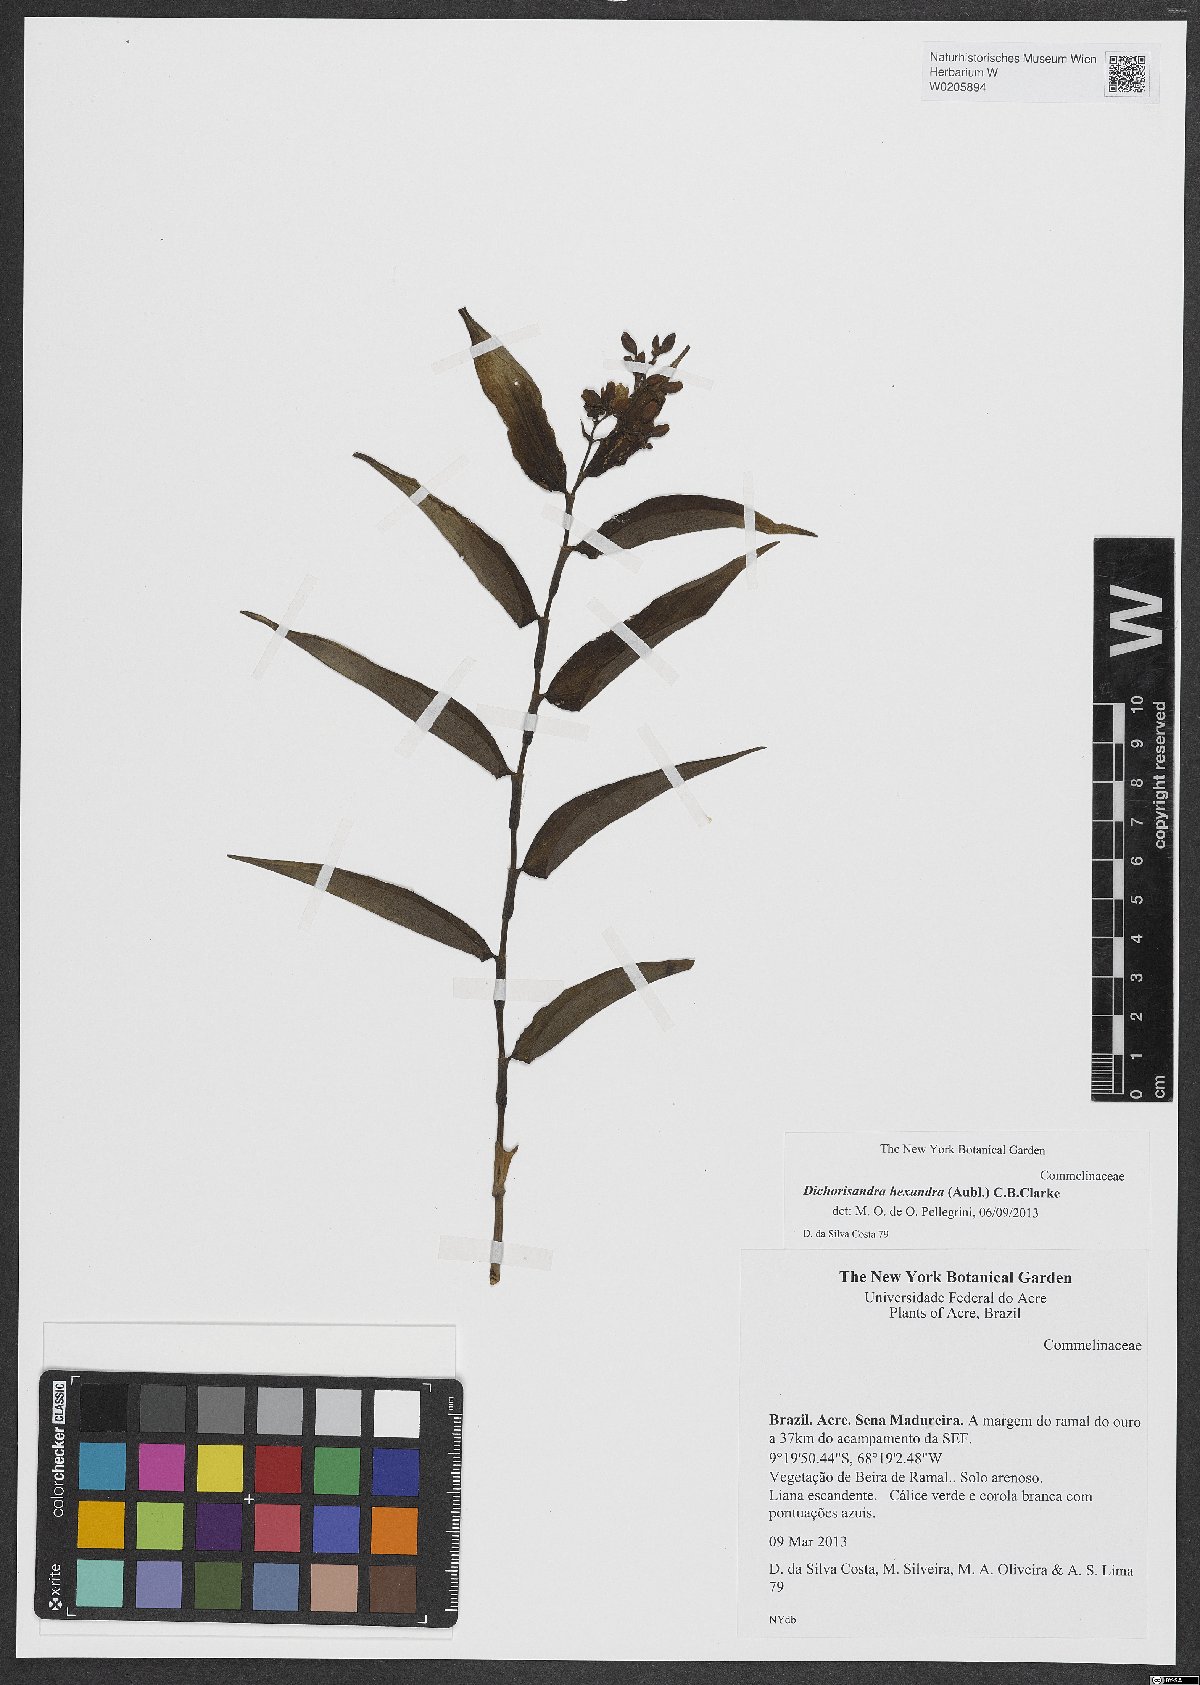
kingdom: Plantae
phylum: Tracheophyta
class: Liliopsida
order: Commelinales
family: Commelinaceae
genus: Dichorisandra
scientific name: Dichorisandra hexandra
